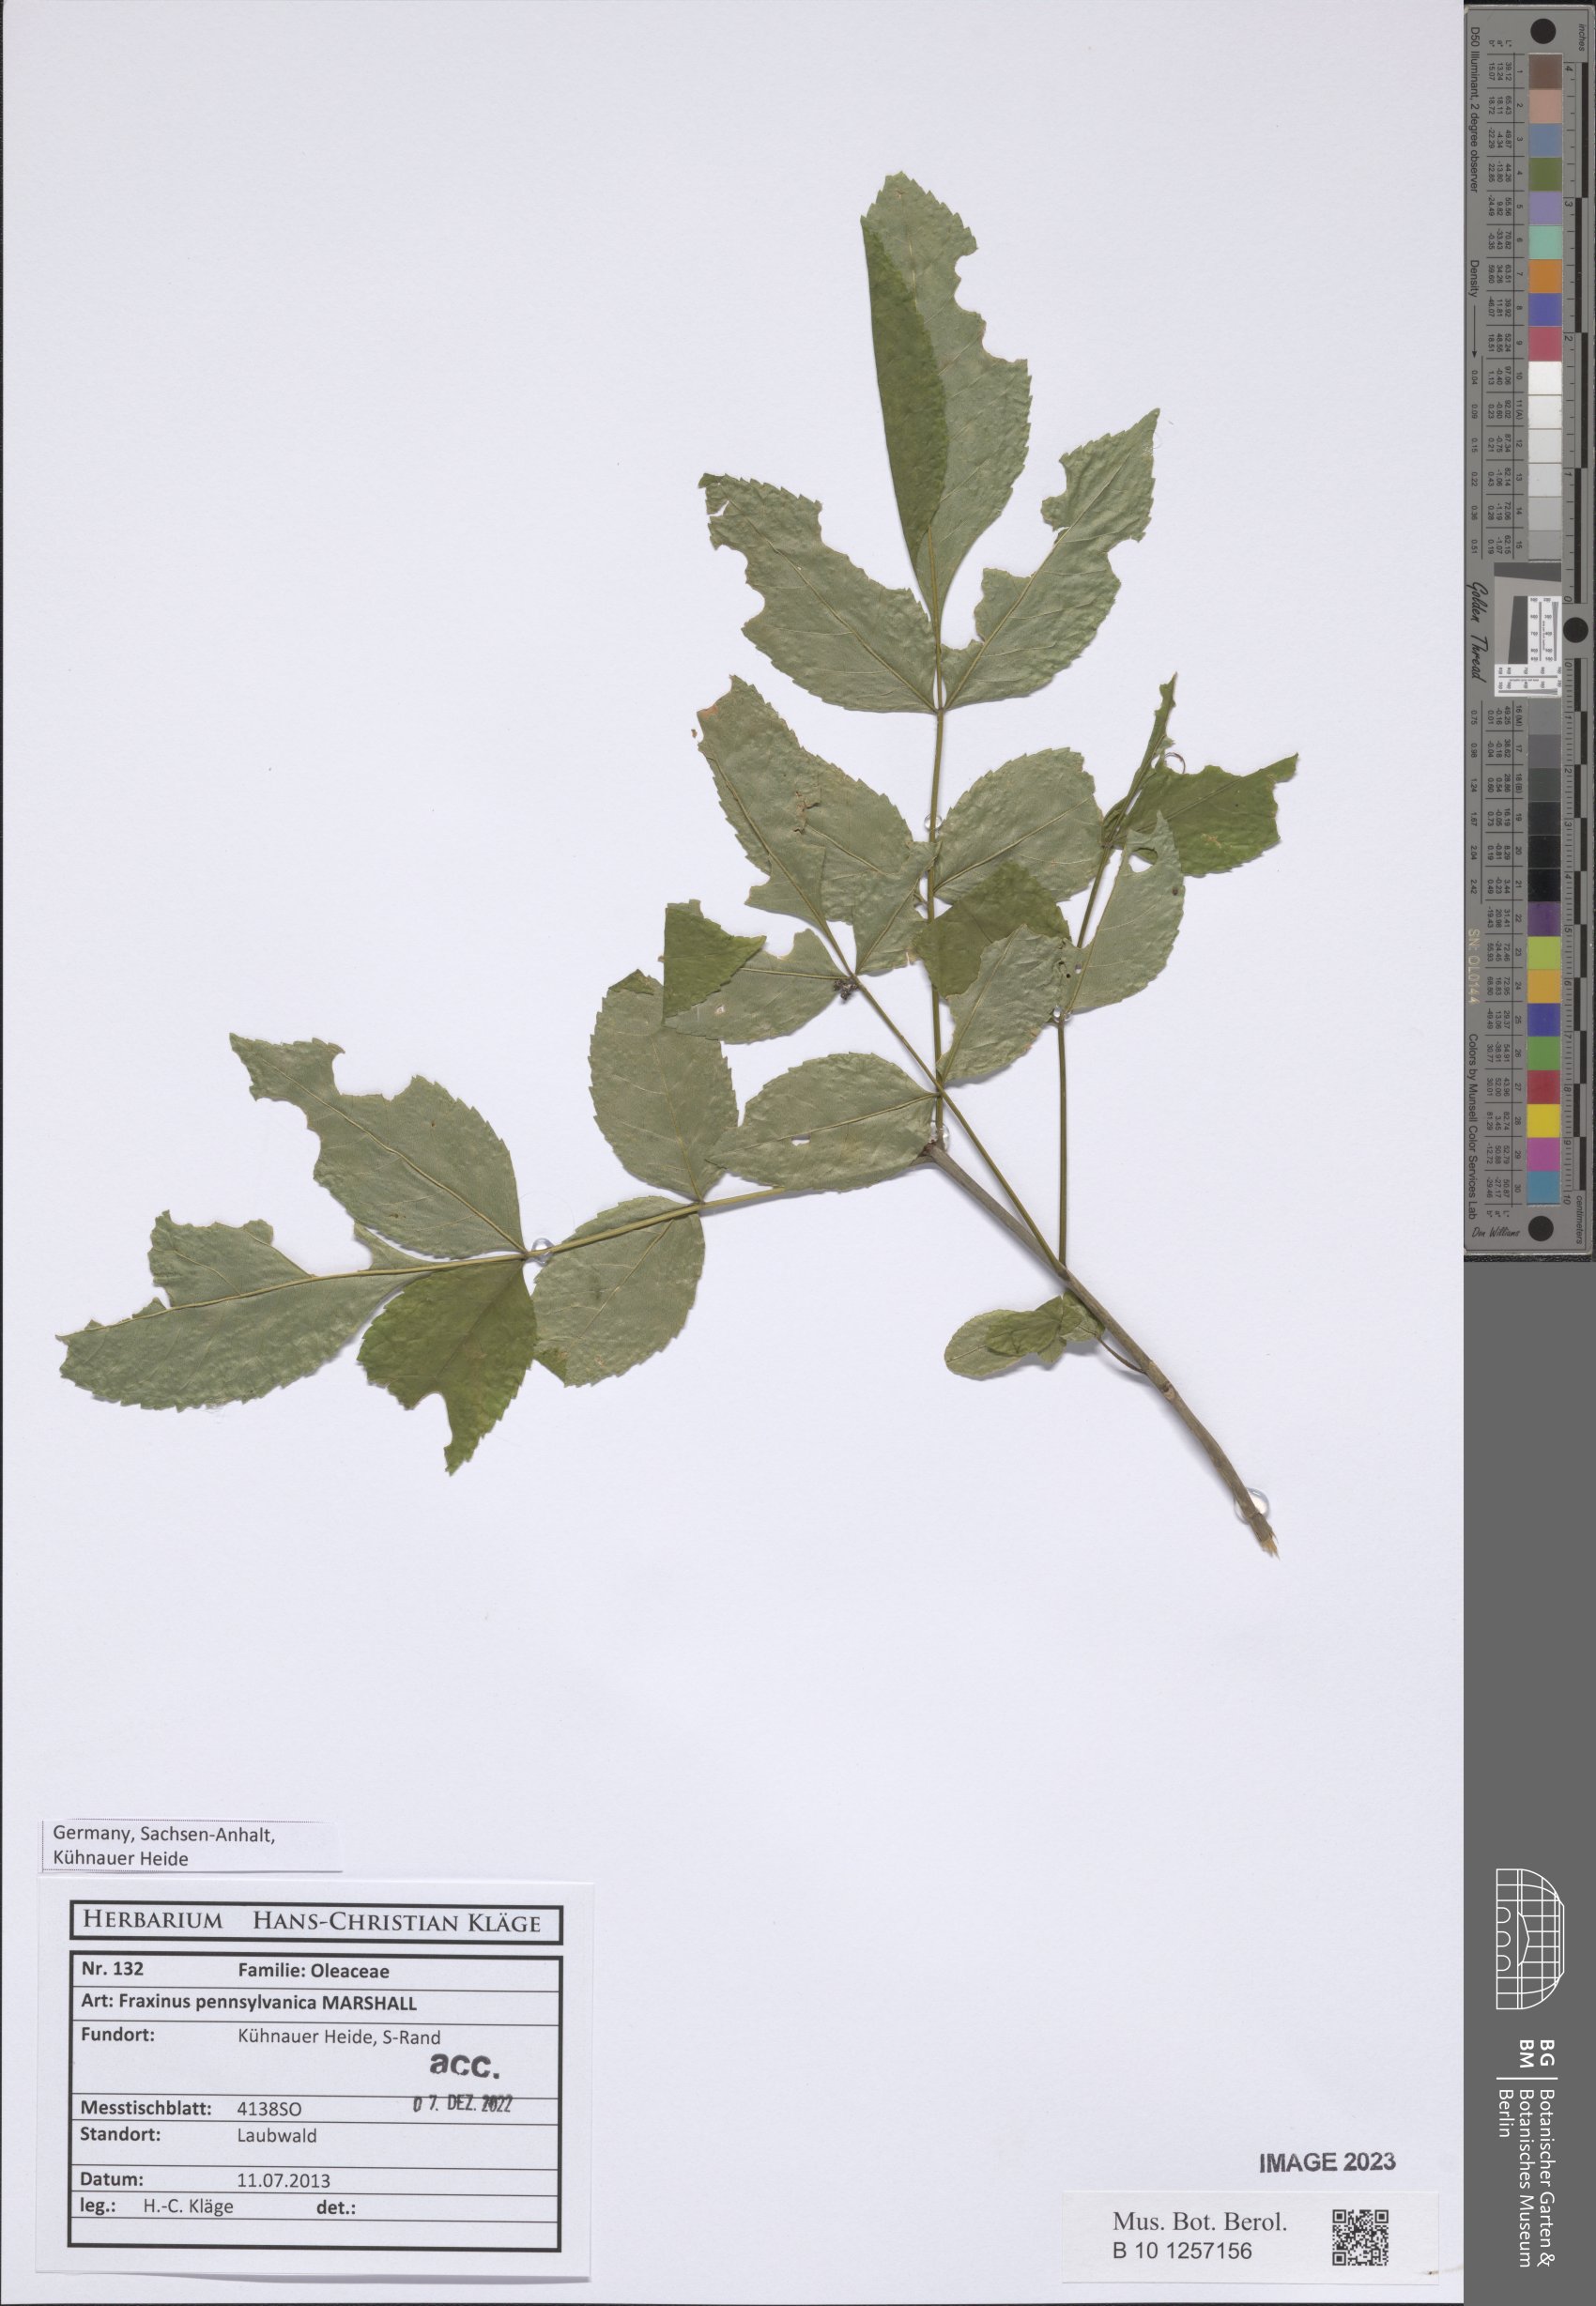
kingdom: Plantae
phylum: Tracheophyta
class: Magnoliopsida
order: Lamiales
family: Oleaceae
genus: Fraxinus
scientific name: Fraxinus pennsylvanica
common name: Green ash
